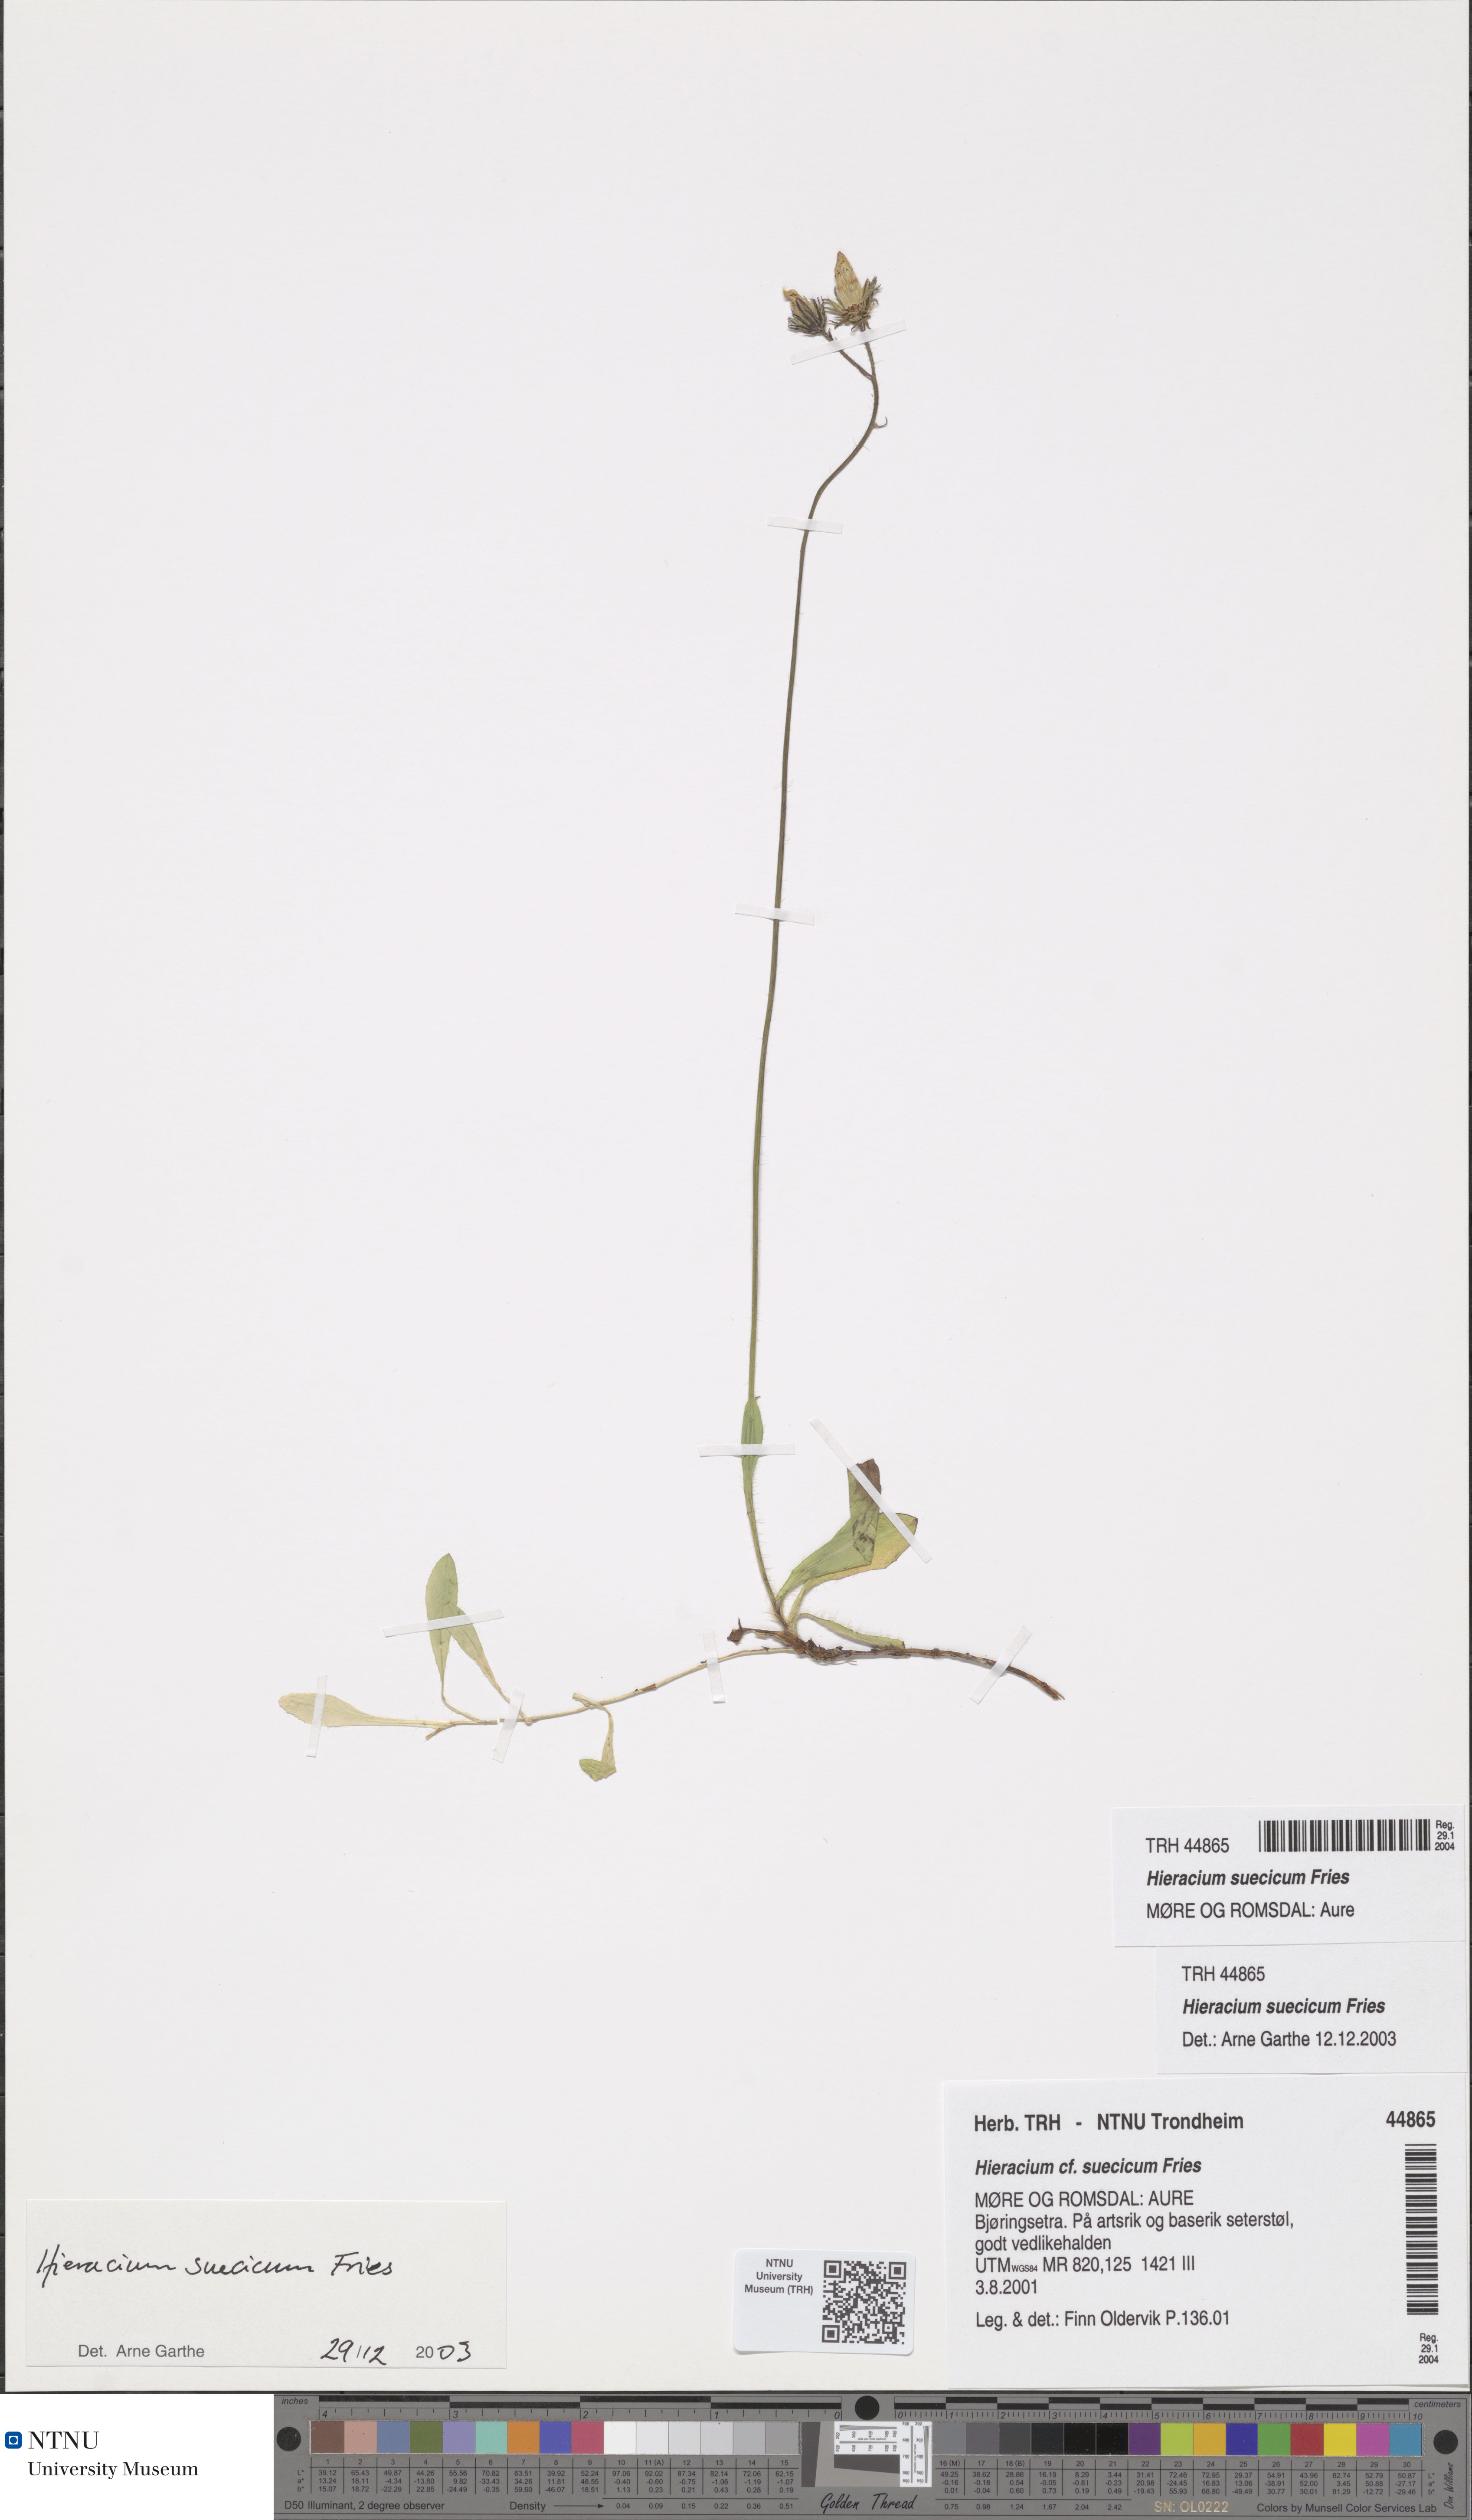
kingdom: Plantae
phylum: Tracheophyta
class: Magnoliopsida
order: Asterales
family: Asteraceae
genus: Pilosella
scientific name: Pilosella dubia
